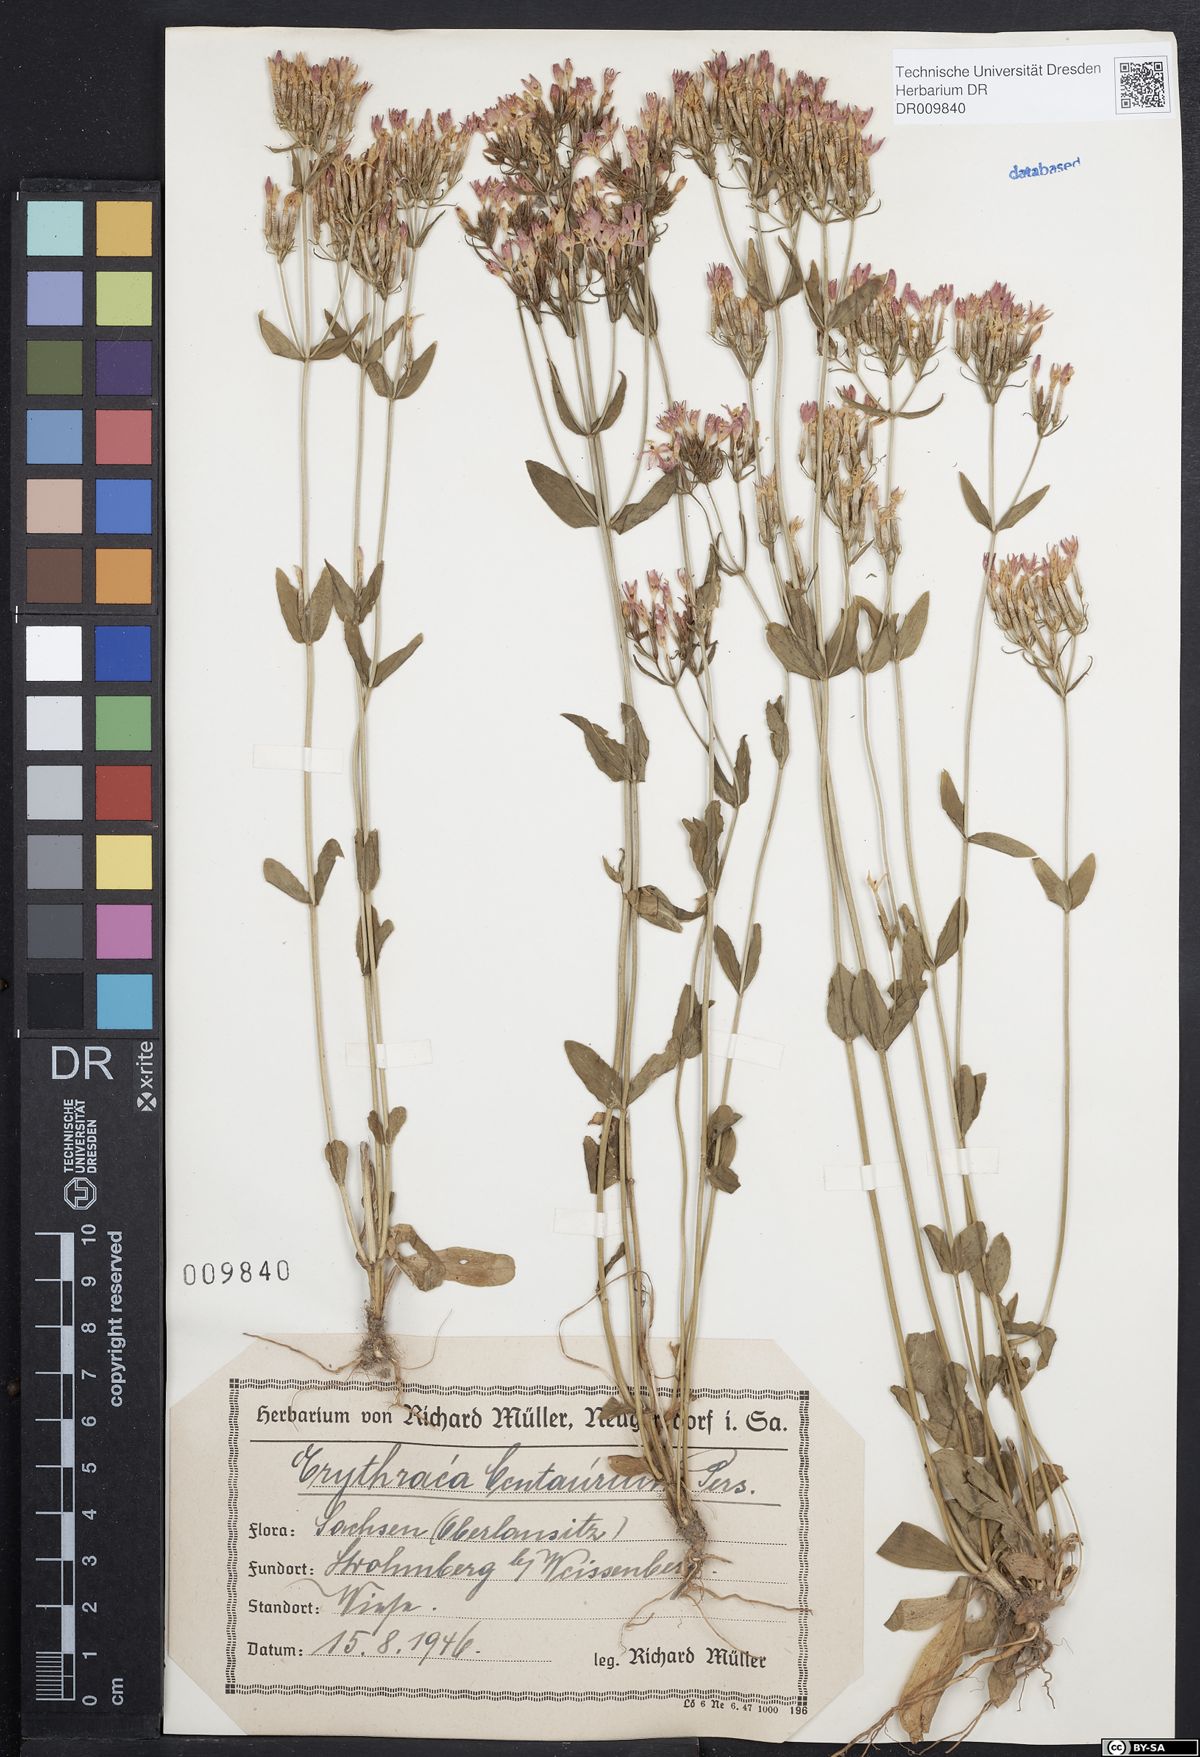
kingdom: Plantae
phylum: Tracheophyta
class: Magnoliopsida
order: Gentianales
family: Gentianaceae
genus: Centaurium
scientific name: Centaurium erythraea
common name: Common centaury
